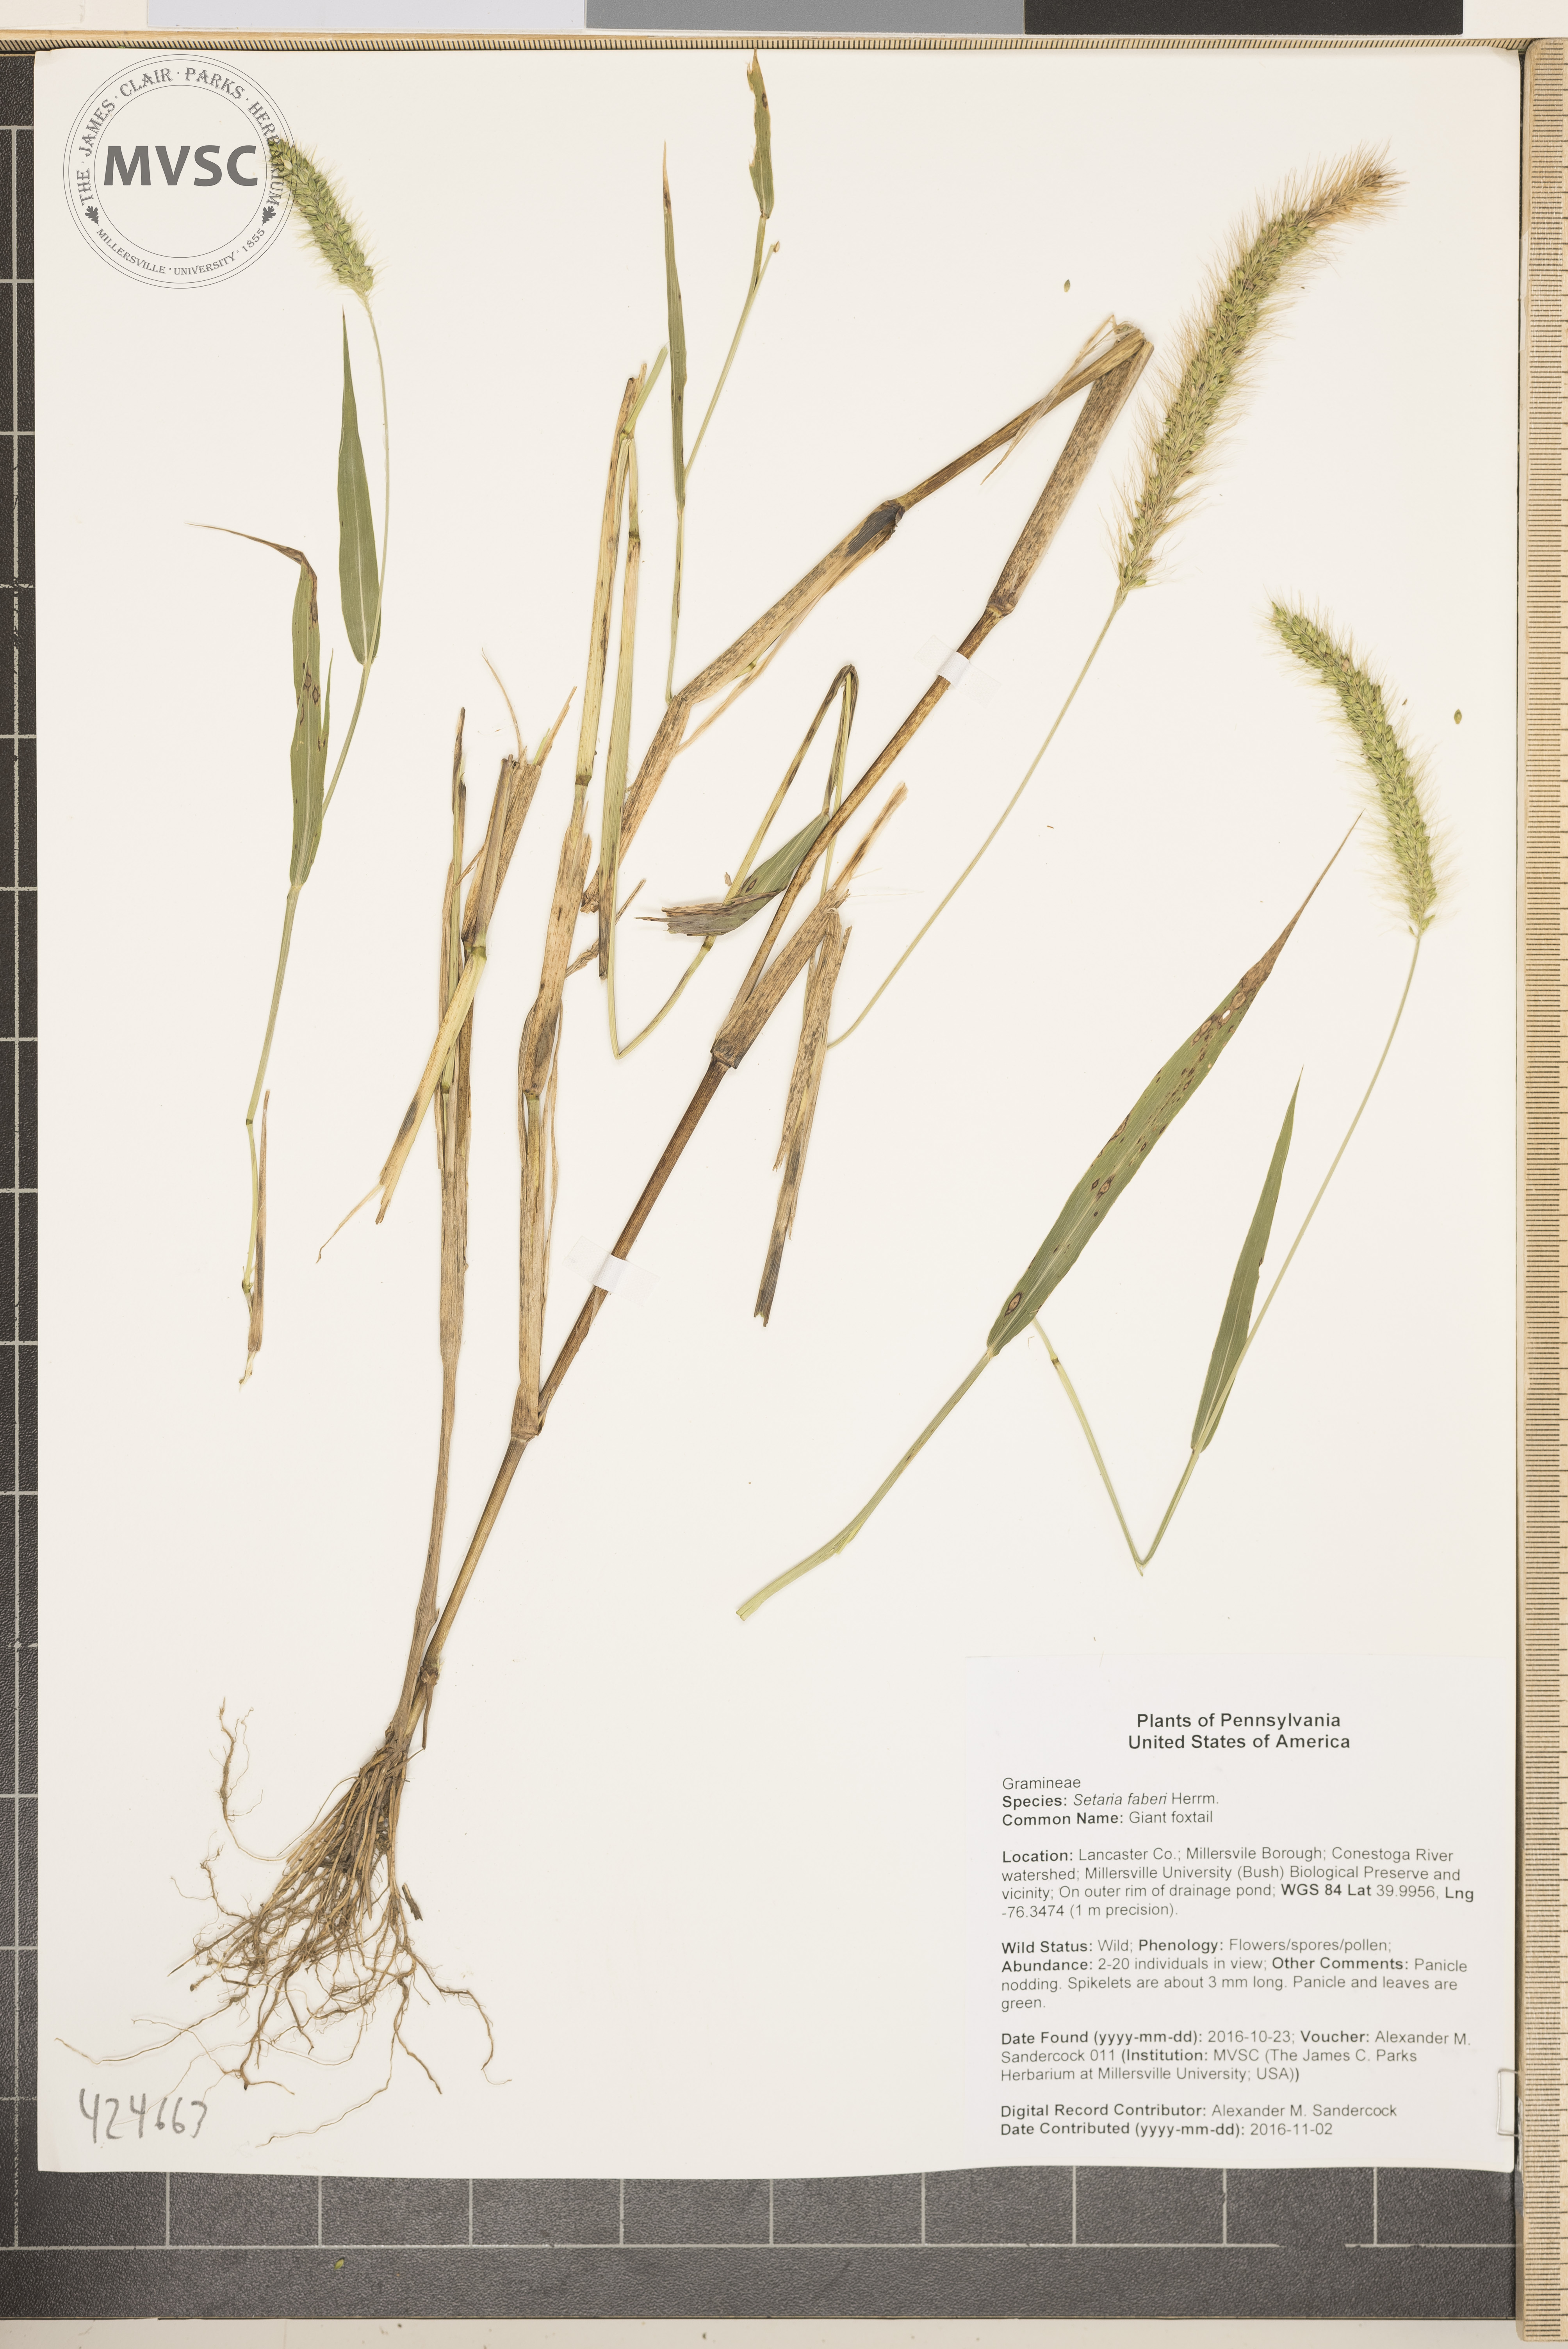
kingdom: Plantae
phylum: Tracheophyta
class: Liliopsida
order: Poales
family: Poaceae
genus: Setaria
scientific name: Setaria faberi
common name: Giant foxtail
